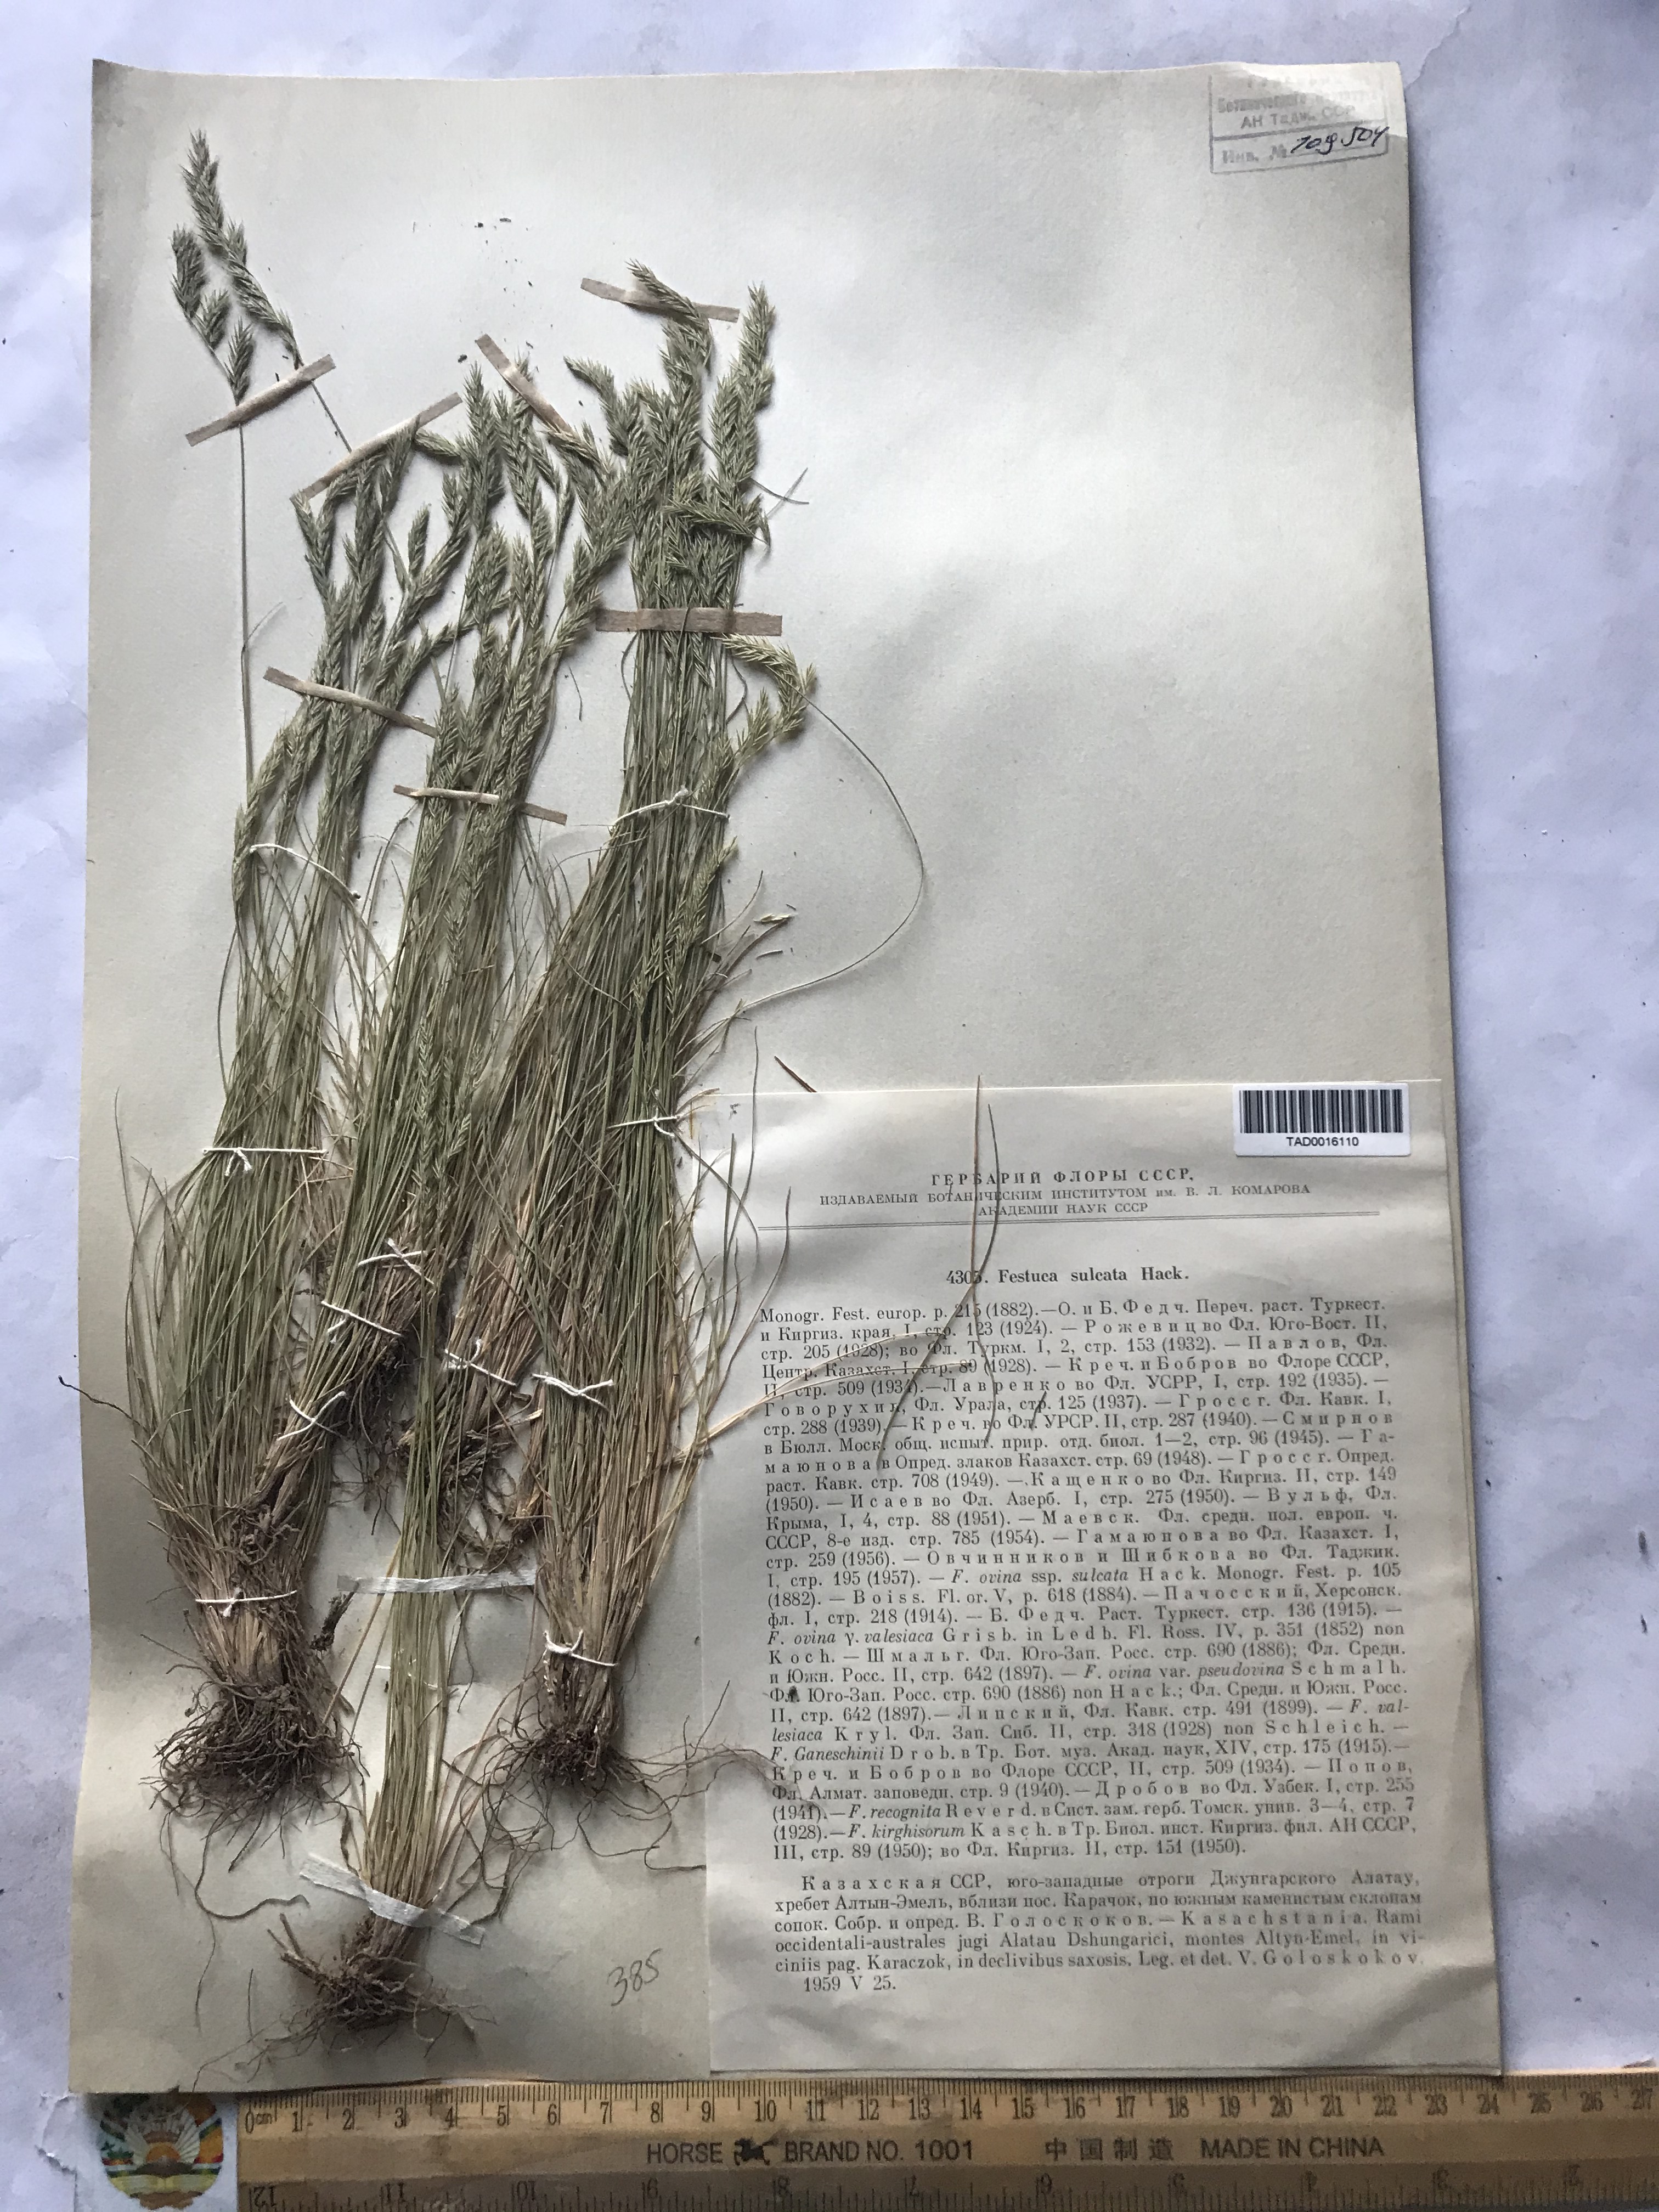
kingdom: Plantae
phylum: Tracheophyta
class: Liliopsida
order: Poales
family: Poaceae
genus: Festuca
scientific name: Festuca sulcata
